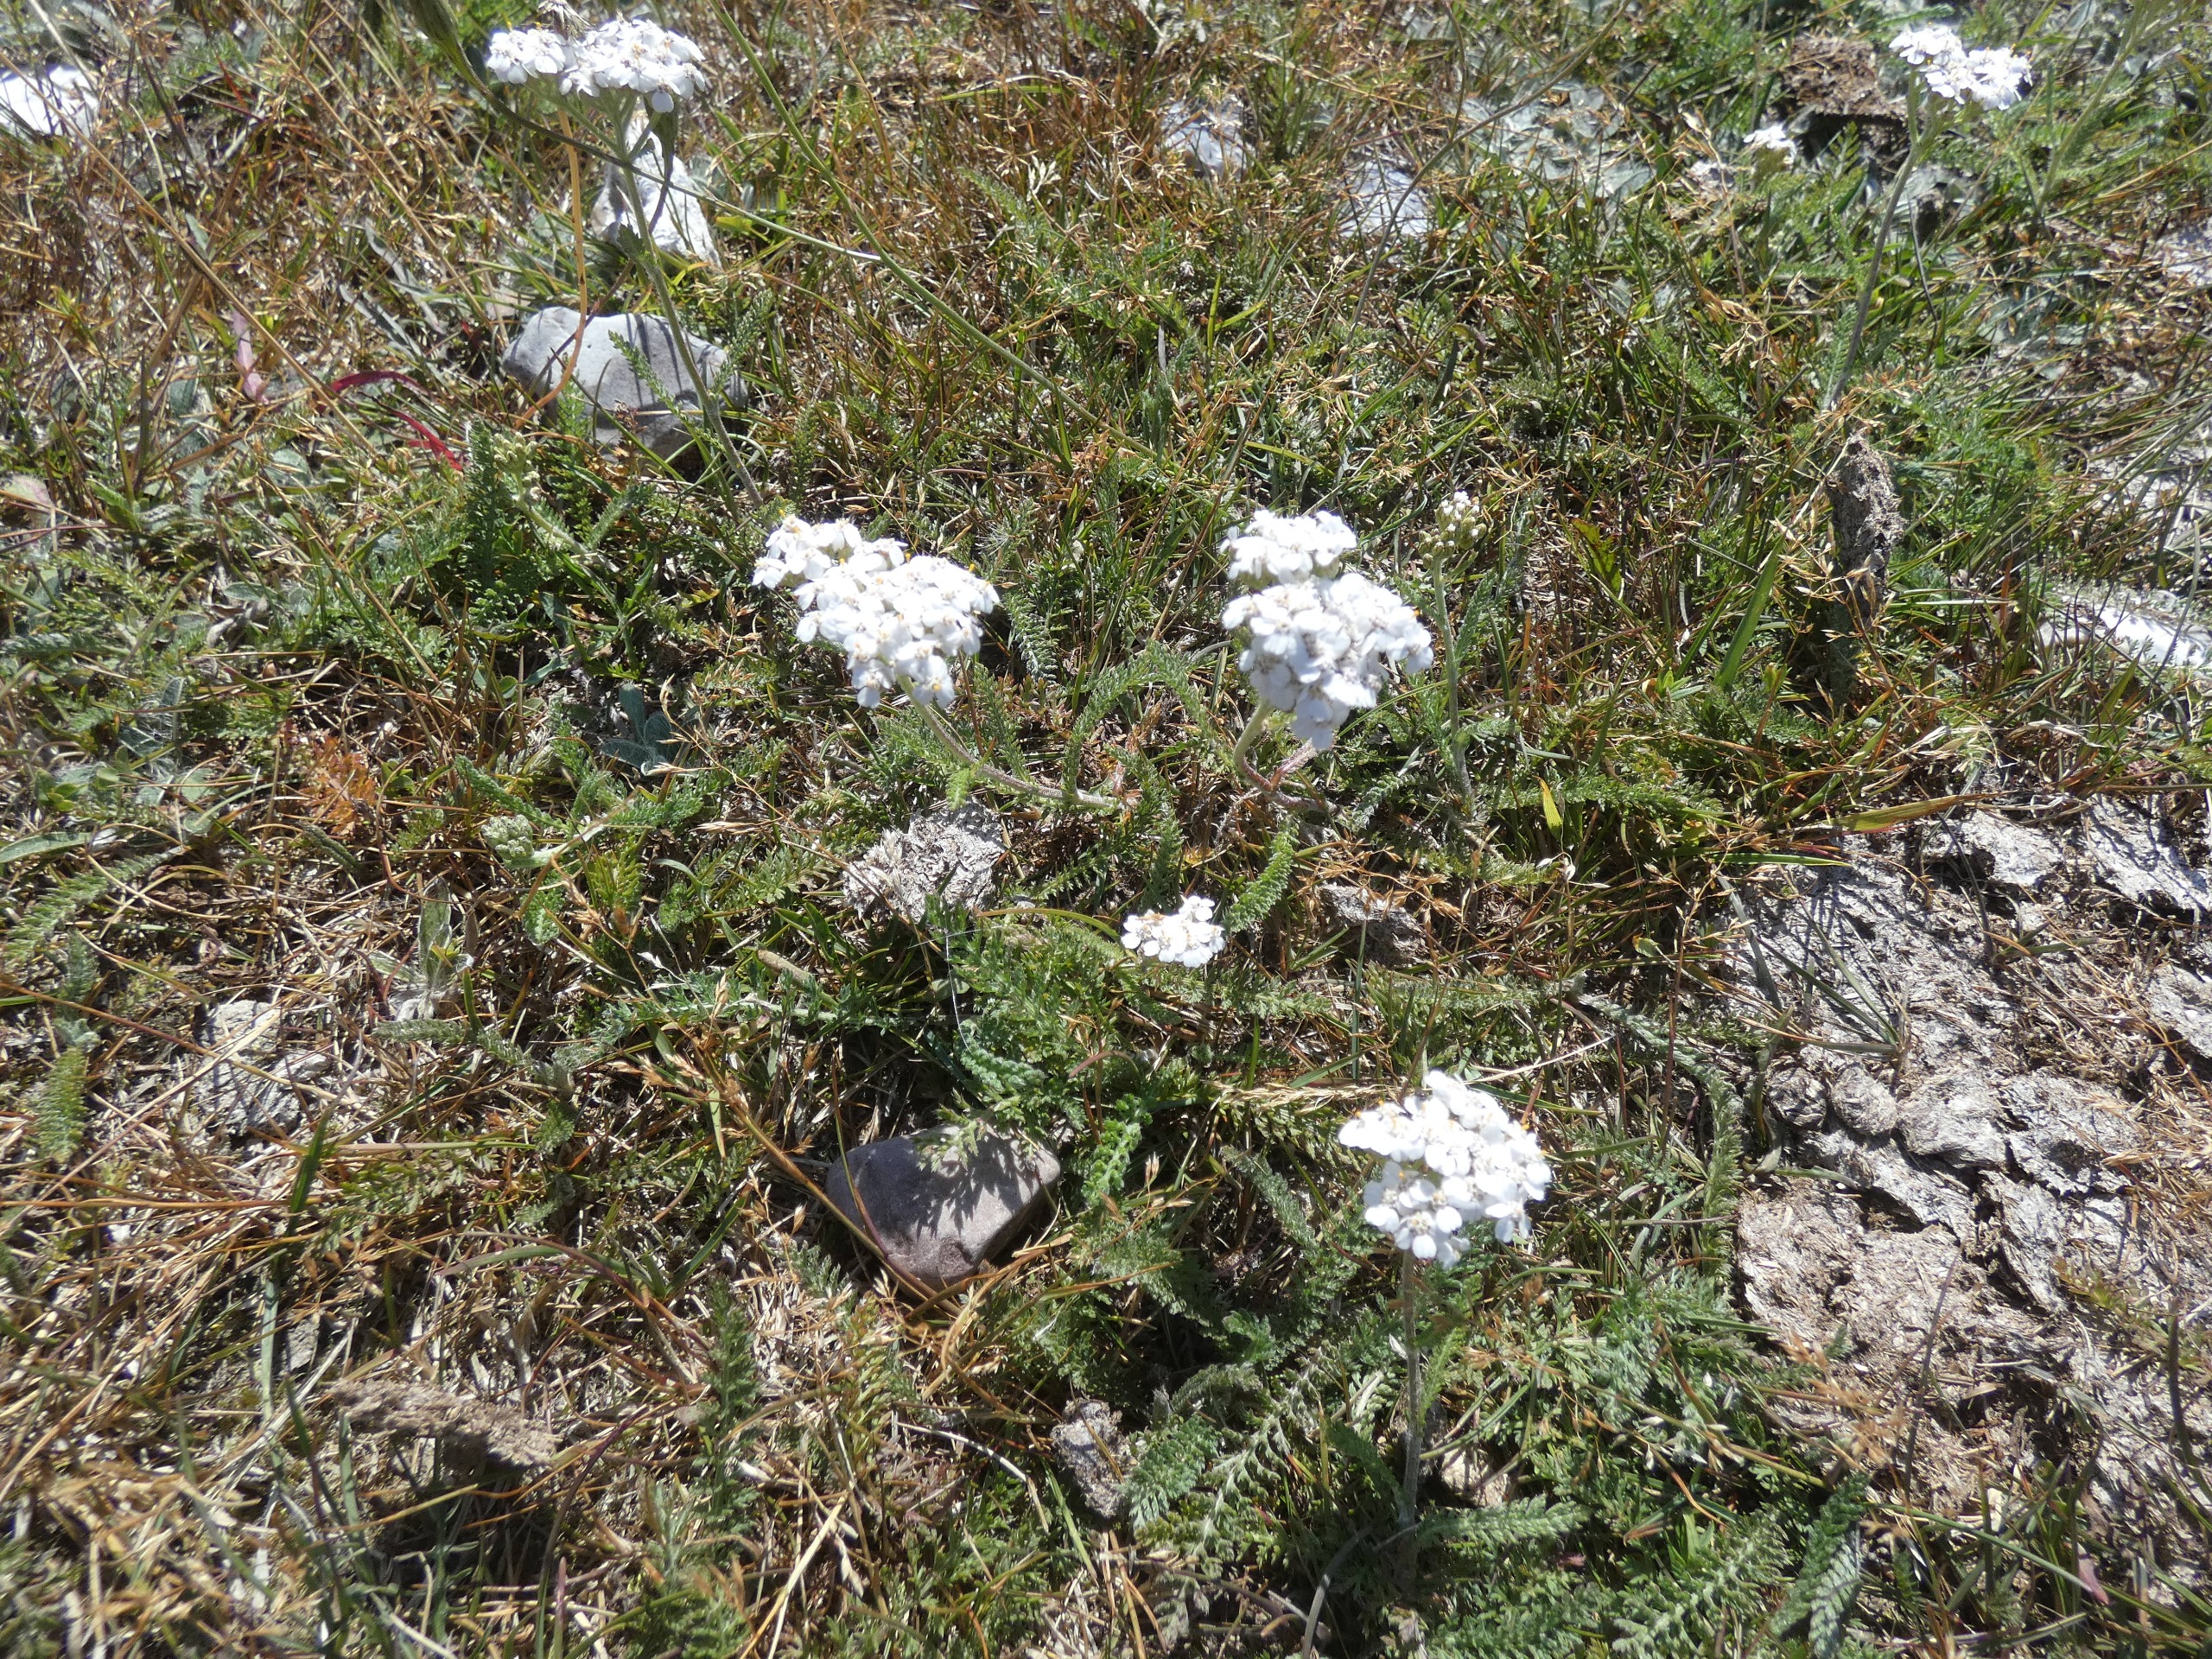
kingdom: Plantae
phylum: Tracheophyta
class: Magnoliopsida
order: Asterales
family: Asteraceae
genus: Achillea
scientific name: Achillea millefolium
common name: Almindelig røllike
